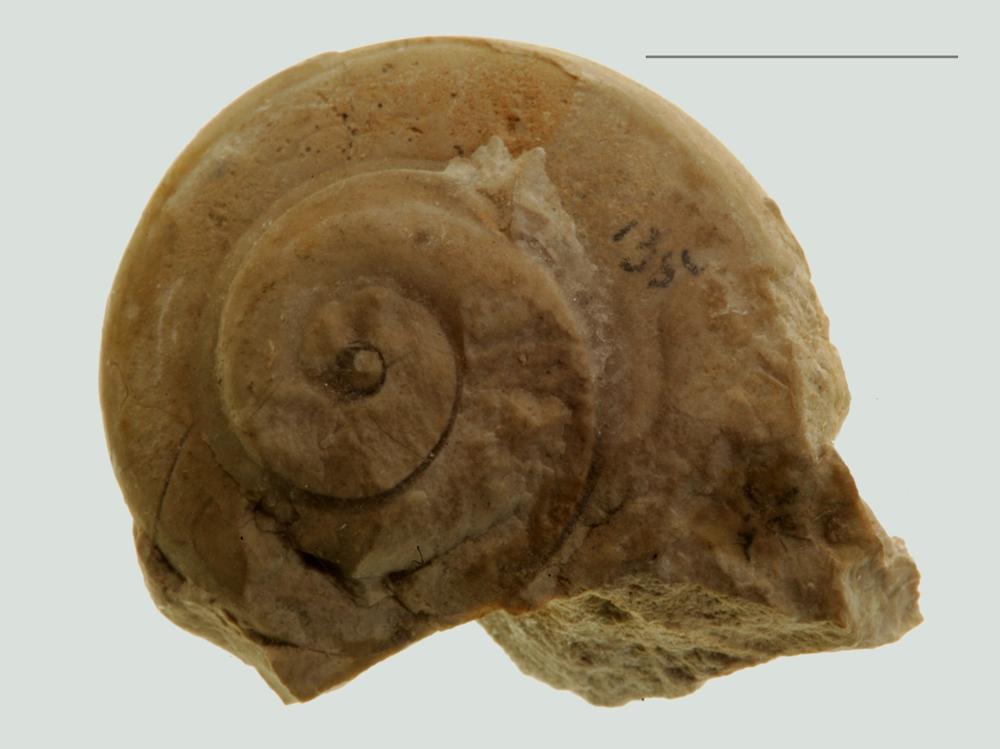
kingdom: Animalia
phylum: Mollusca
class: Gastropoda
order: Pleurotomariida
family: Gosseletinidae
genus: Latitaenia
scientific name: Latitaenia Pleurotomaria rotelloidea
